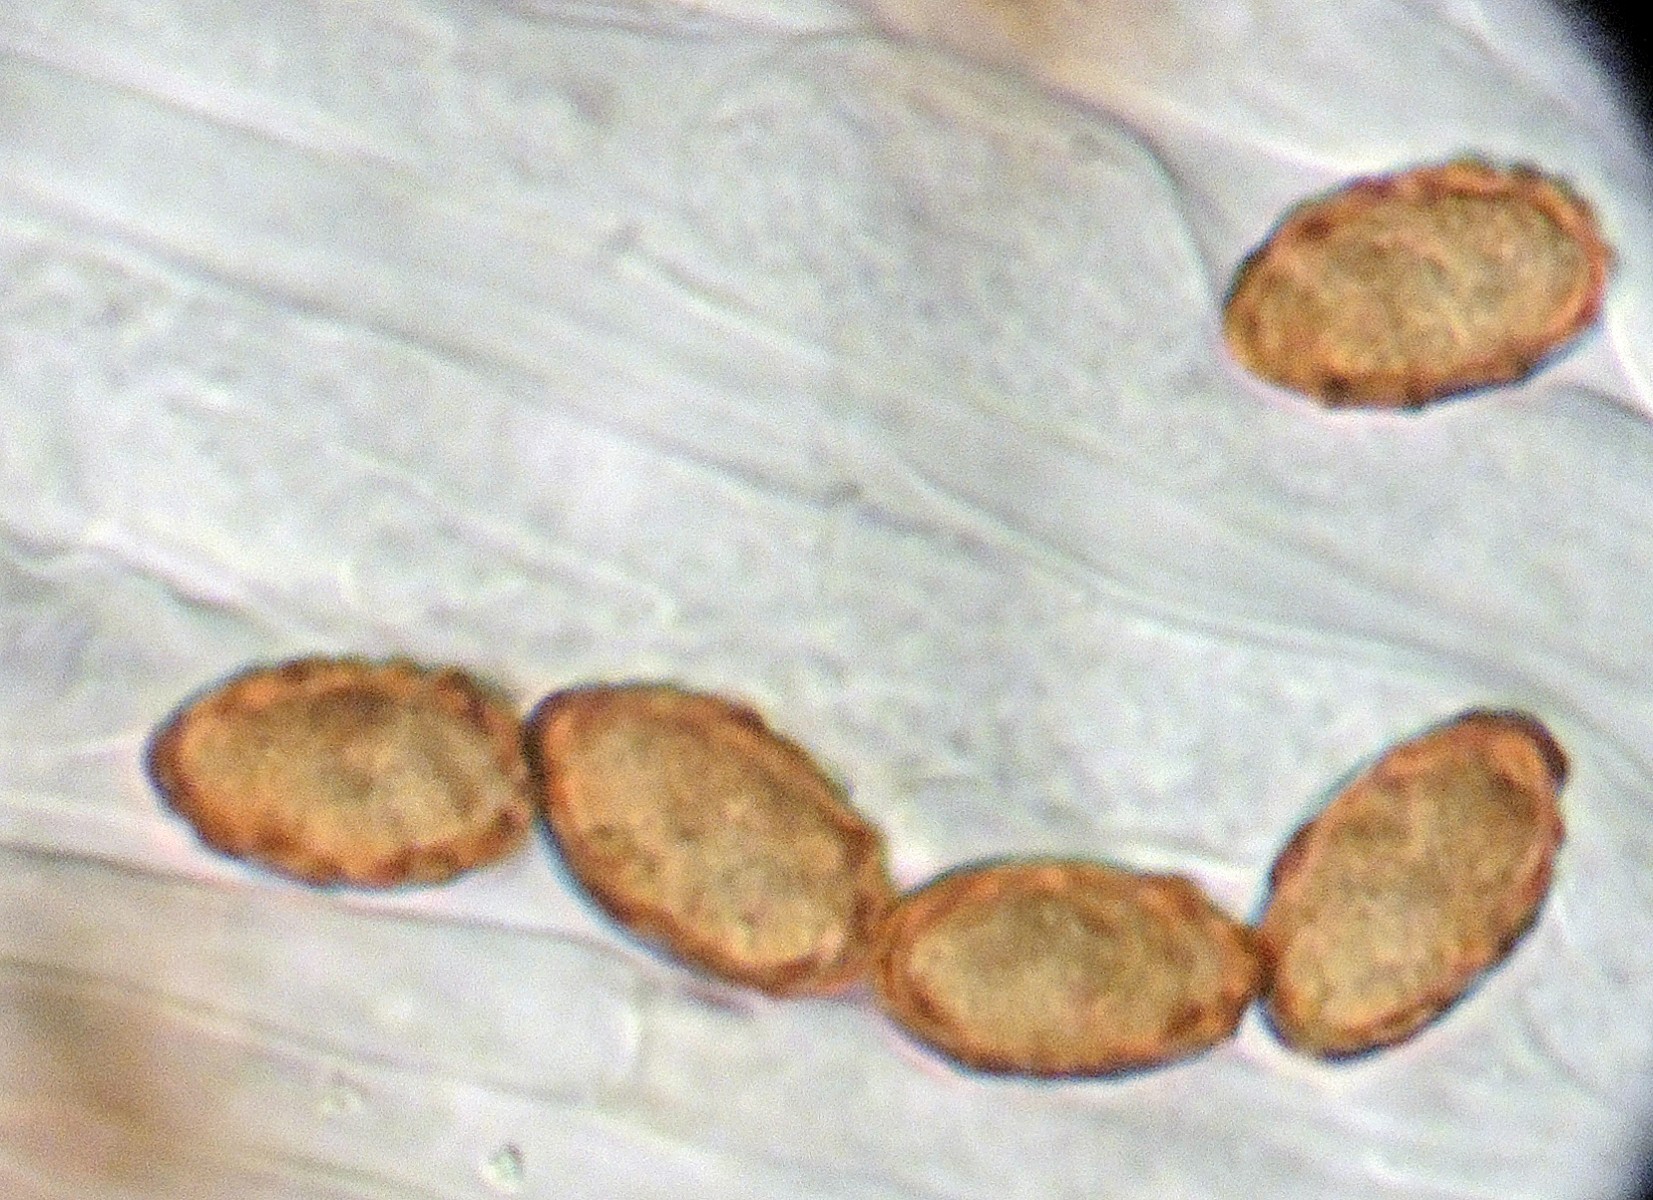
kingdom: Fungi
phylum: Basidiomycota
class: Agaricomycetes
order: Agaricales
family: Cortinariaceae
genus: Cortinarius
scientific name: Cortinarius trivialis
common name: Girdled webcap
